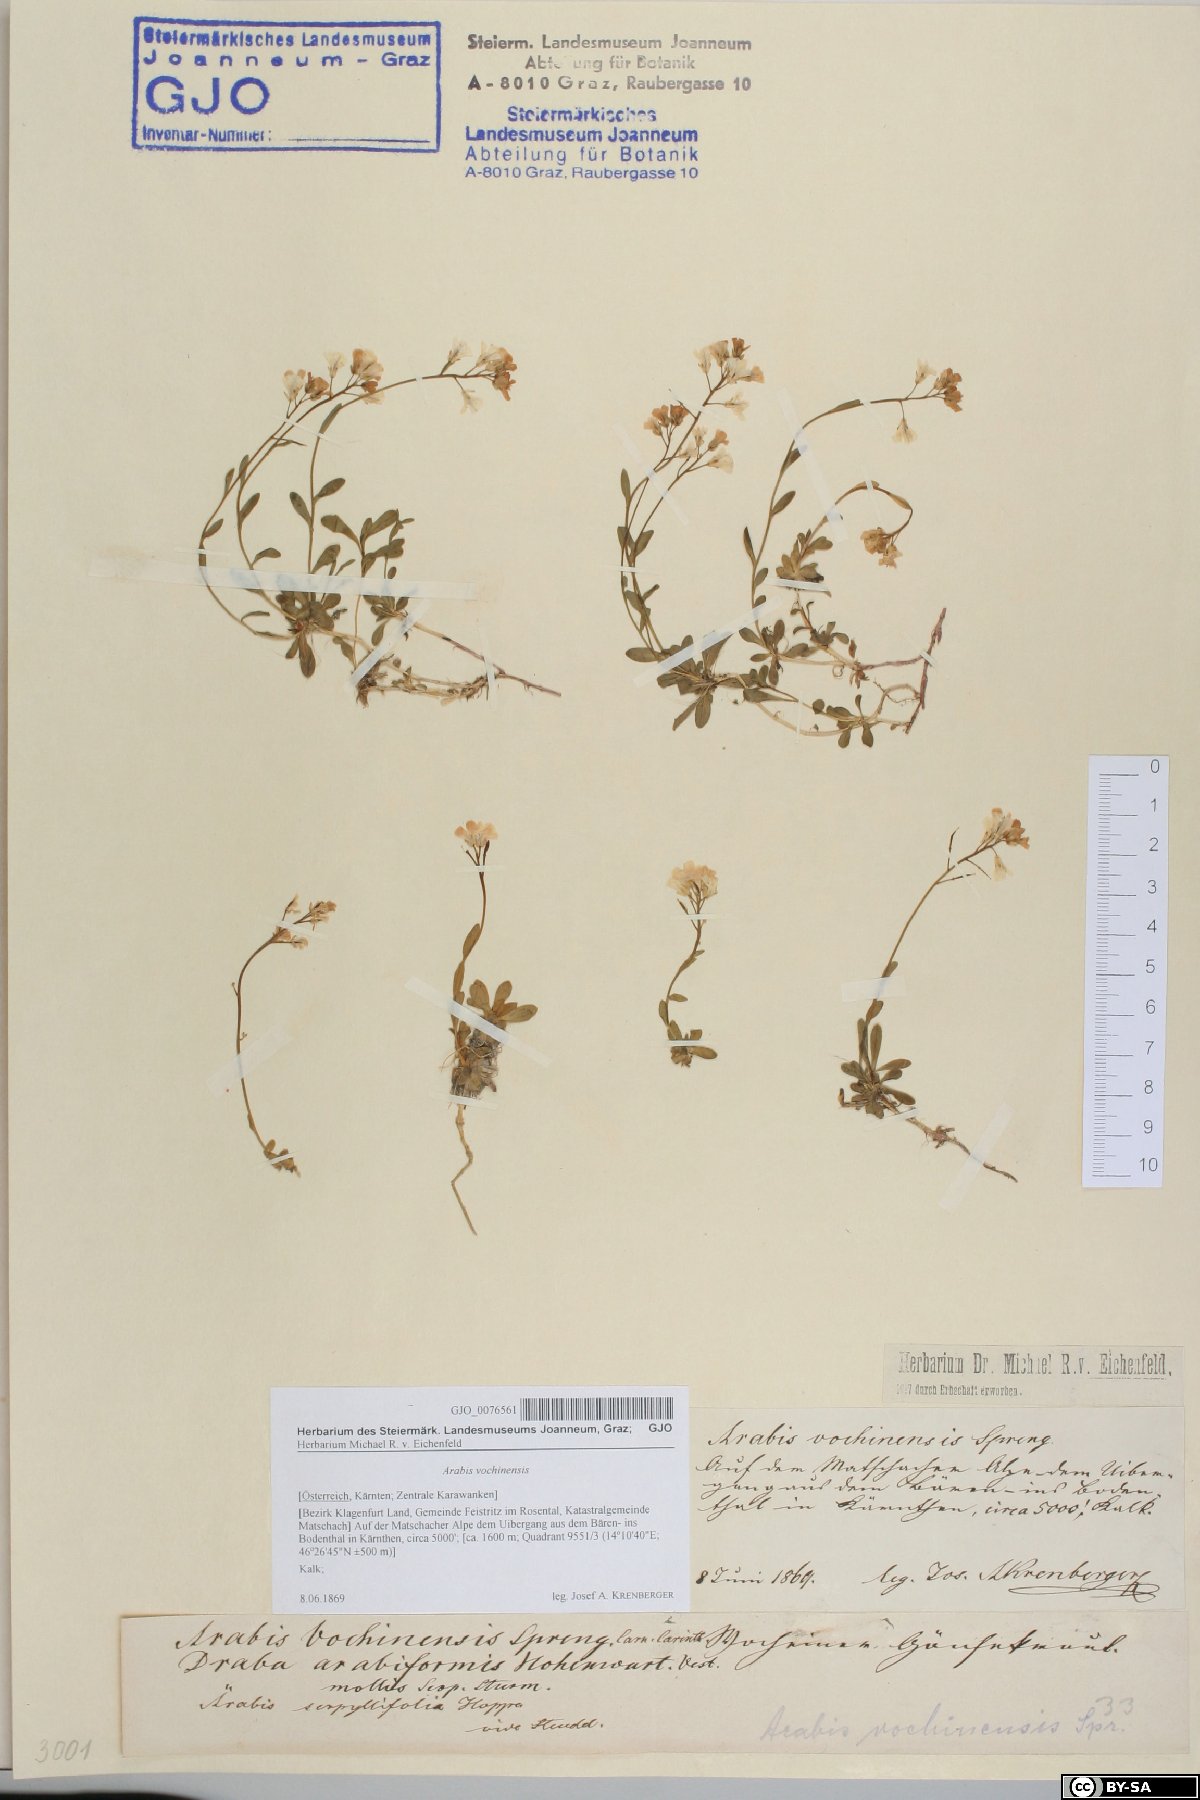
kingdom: Plantae
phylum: Tracheophyta
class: Magnoliopsida
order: Brassicales
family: Brassicaceae
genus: Arabis
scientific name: Arabis vochinensis
